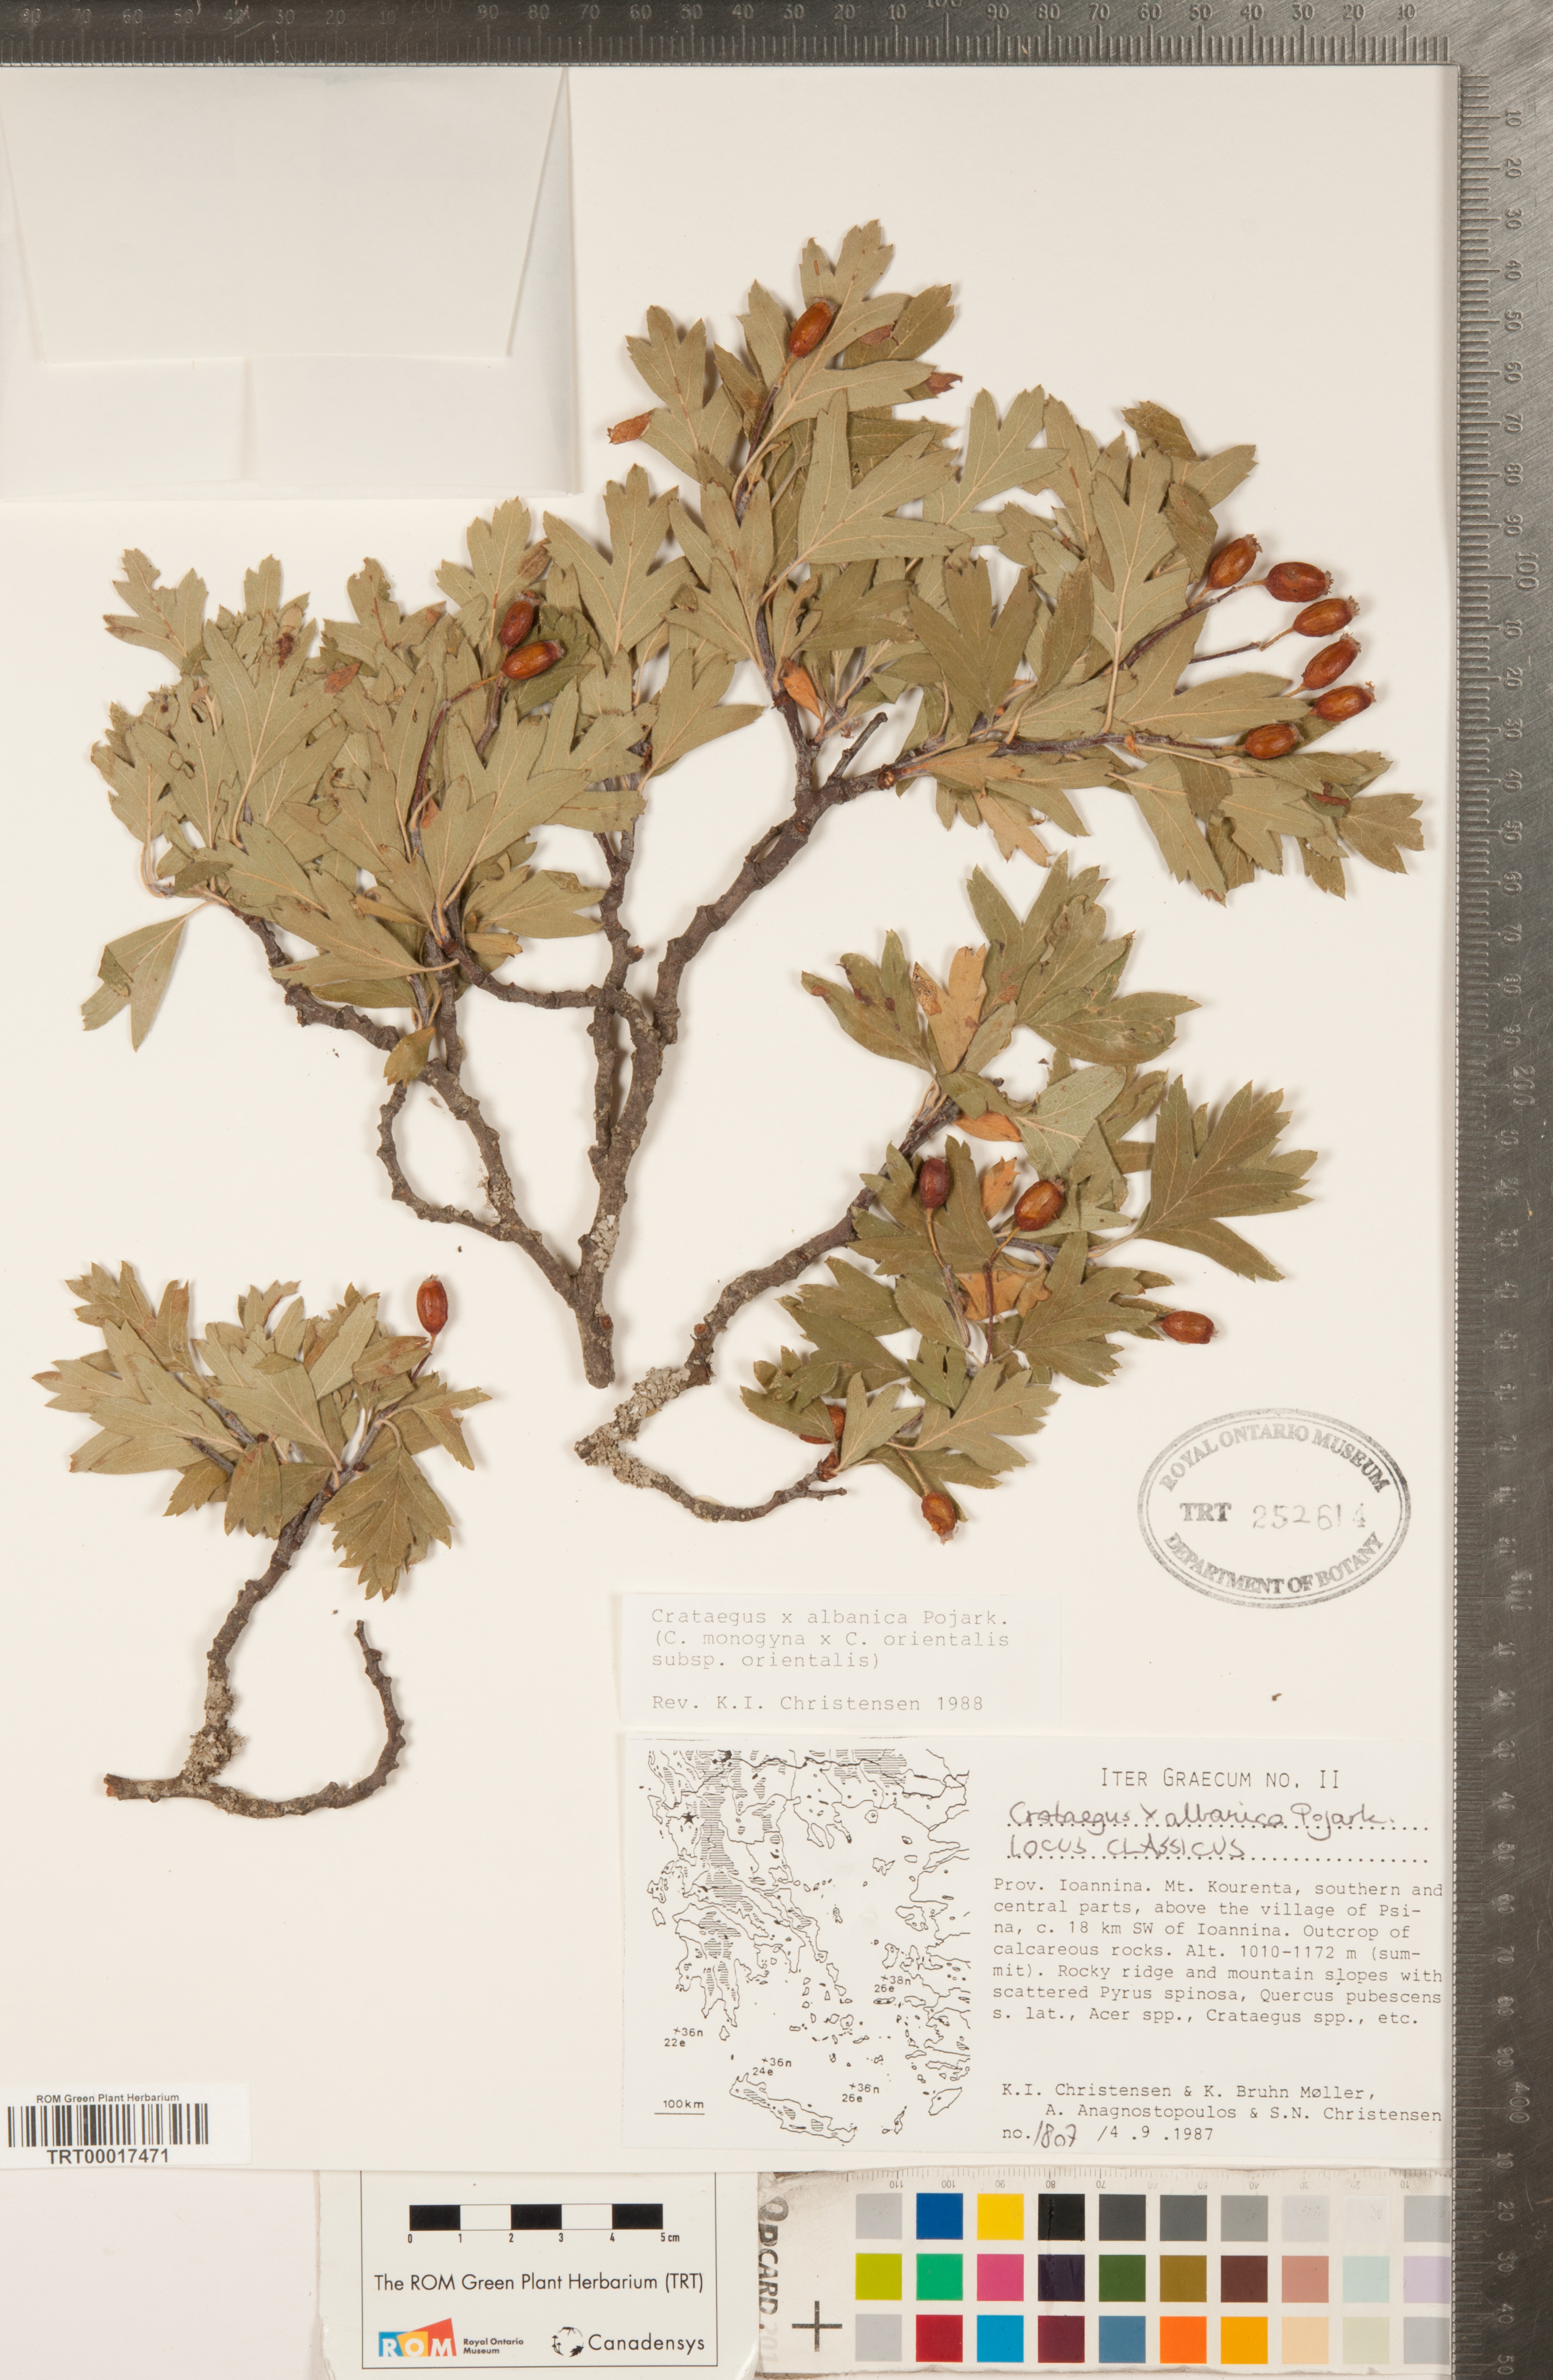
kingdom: Plantae
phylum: Tracheophyta
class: Magnoliopsida
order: Rosales
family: Rosaceae
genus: Crataegus
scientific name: Crataegus albanica
